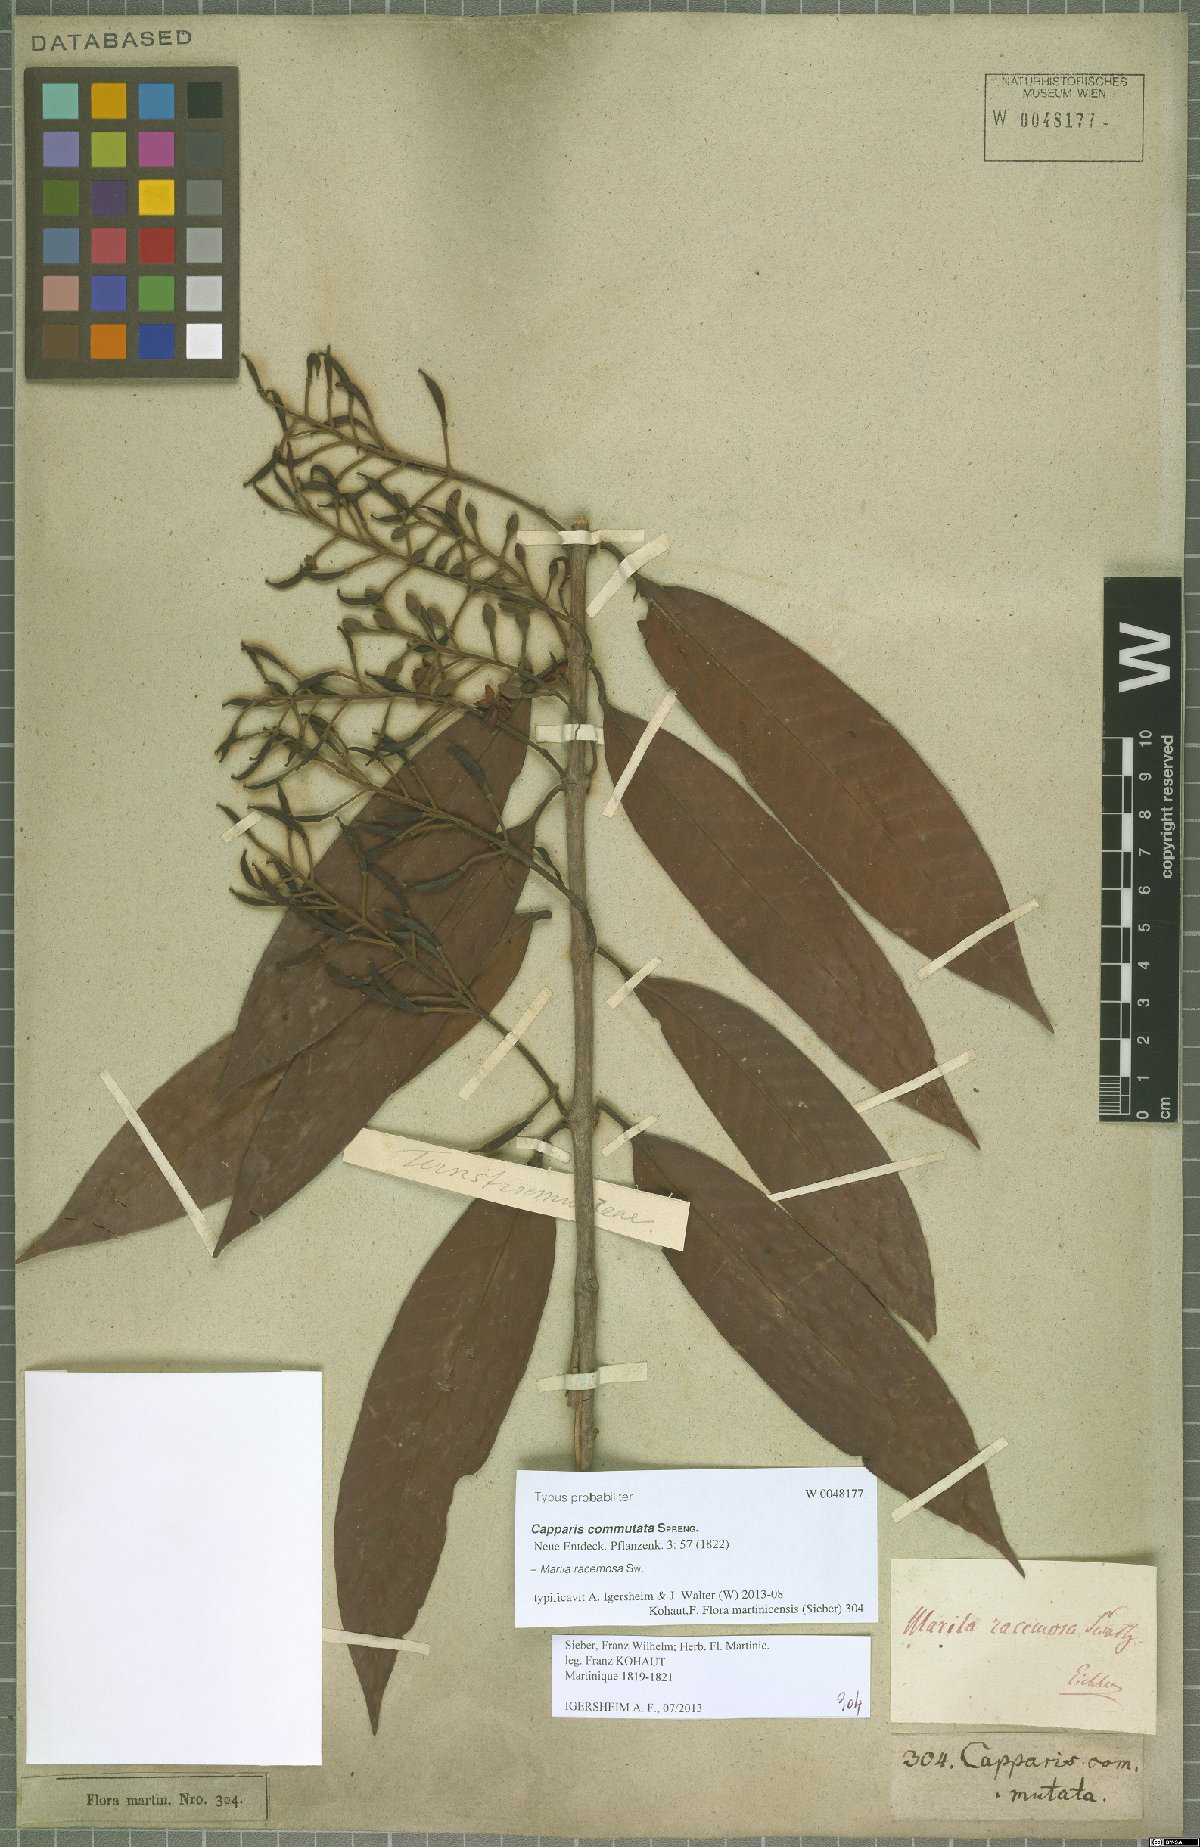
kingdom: Plantae
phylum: Tracheophyta
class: Magnoliopsida
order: Malpighiales
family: Calophyllaceae
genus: Marila
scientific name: Marila racemosa
